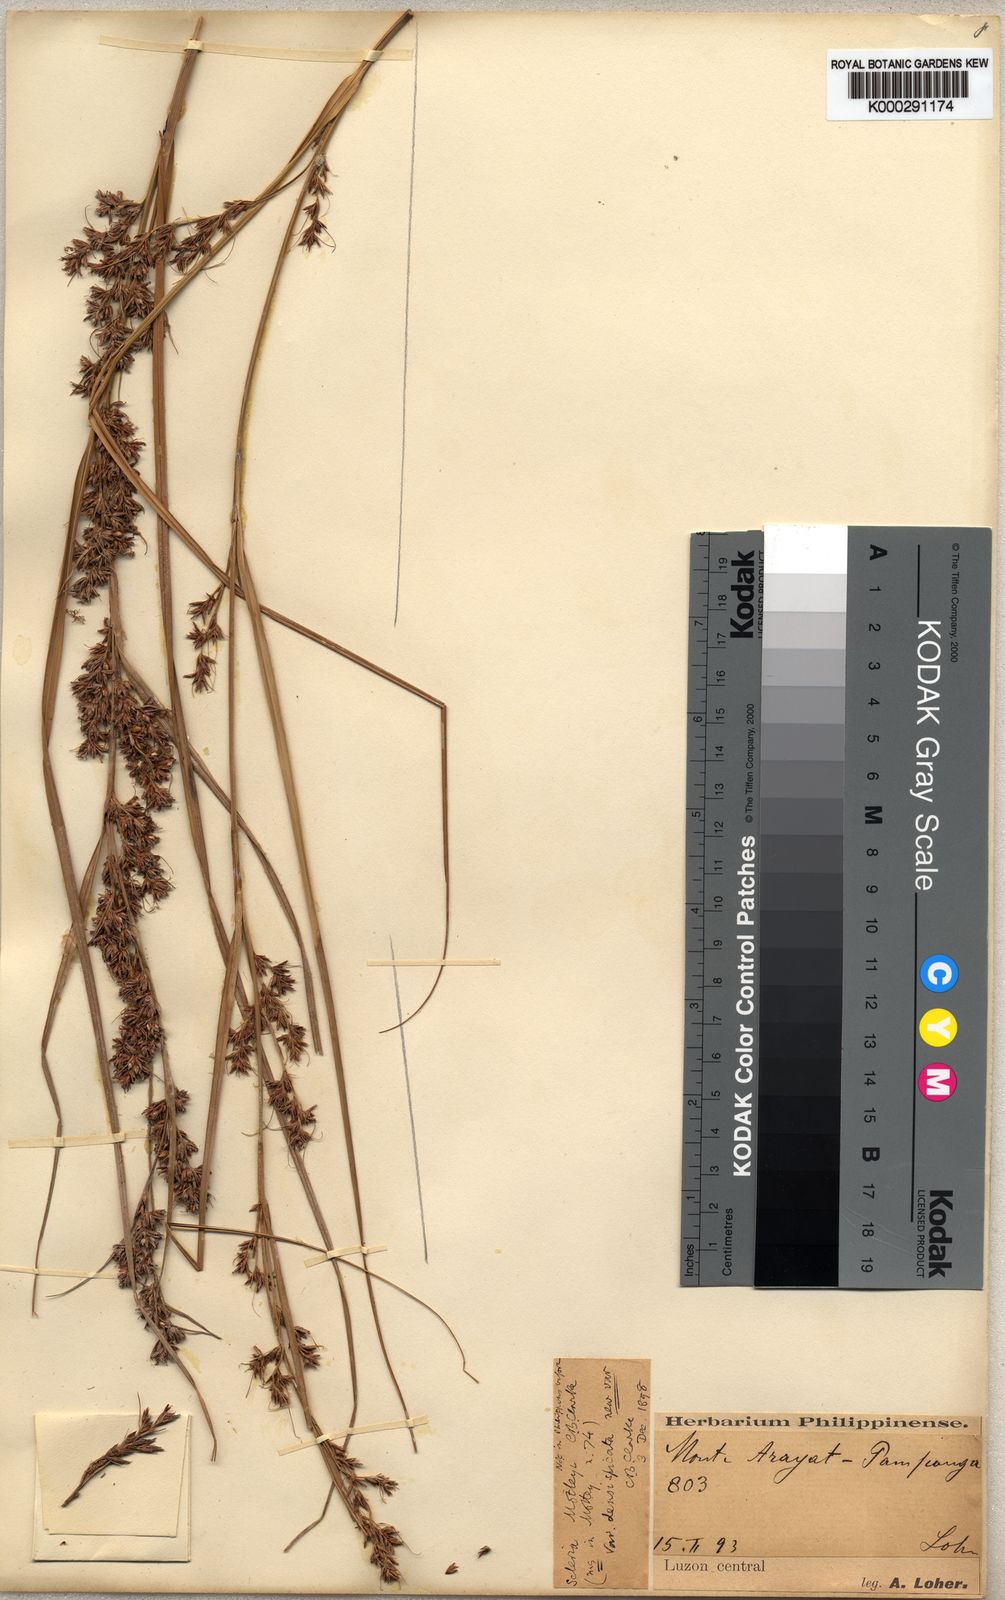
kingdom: Plantae
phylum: Tracheophyta
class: Liliopsida
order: Poales
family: Cyperaceae
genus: Scleria
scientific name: Scleria densispicata
